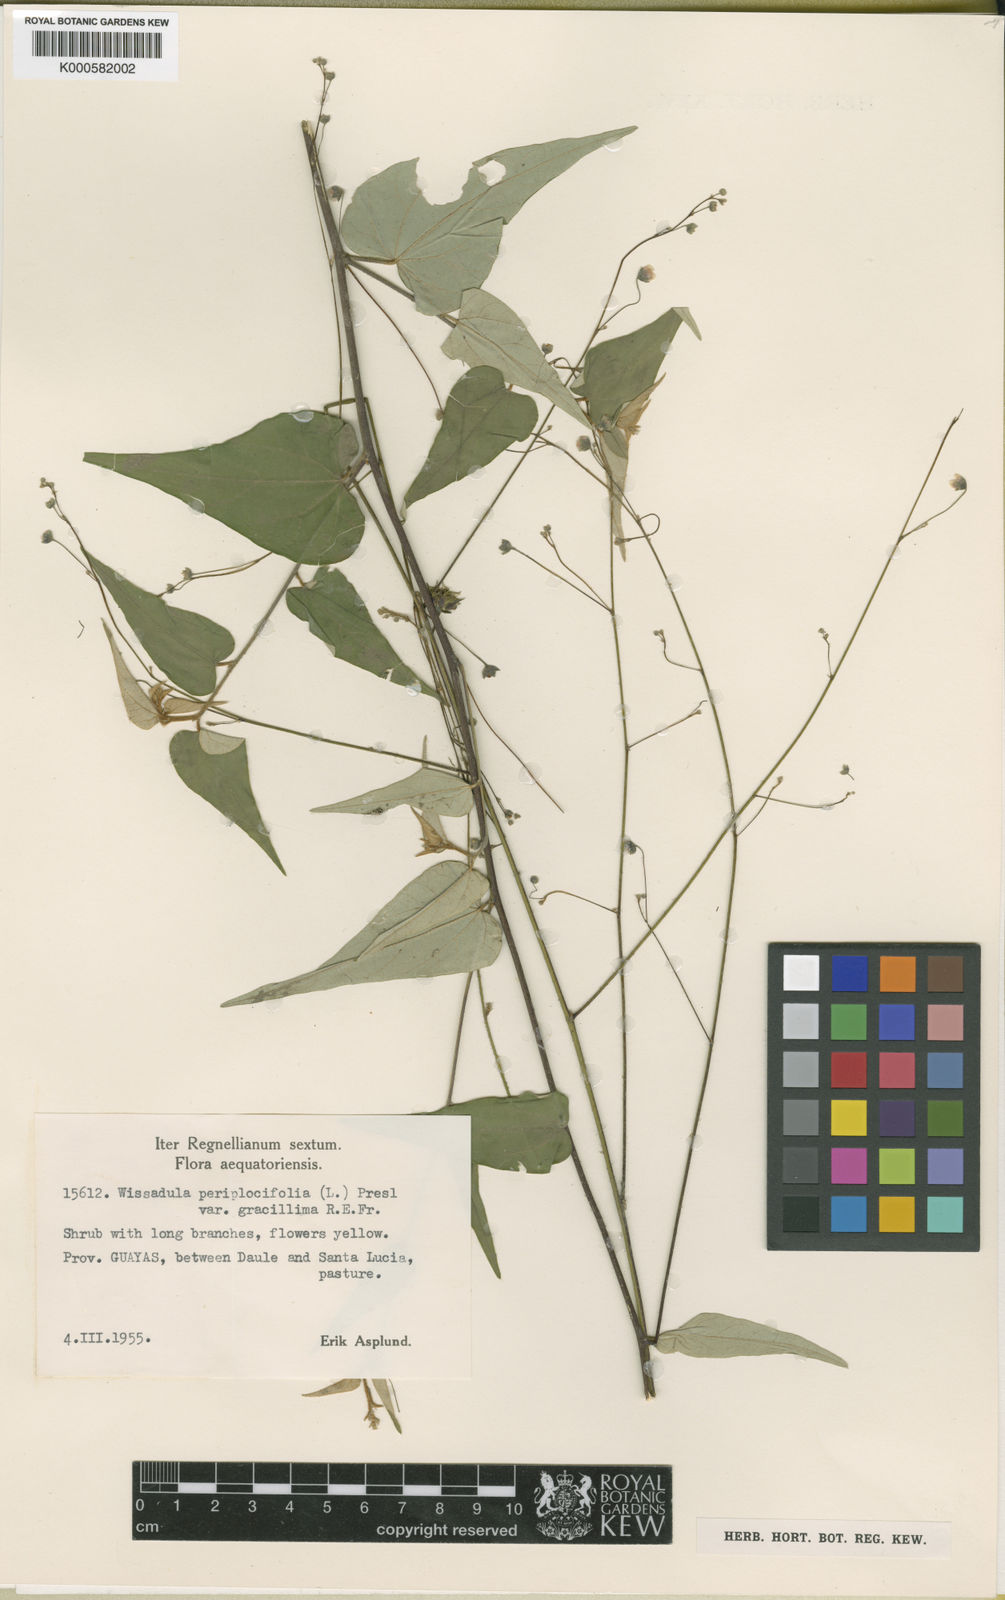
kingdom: Plantae
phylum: Tracheophyta
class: Magnoliopsida
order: Malvales
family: Malvaceae
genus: Wissadula
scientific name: Wissadula periplocifolia
